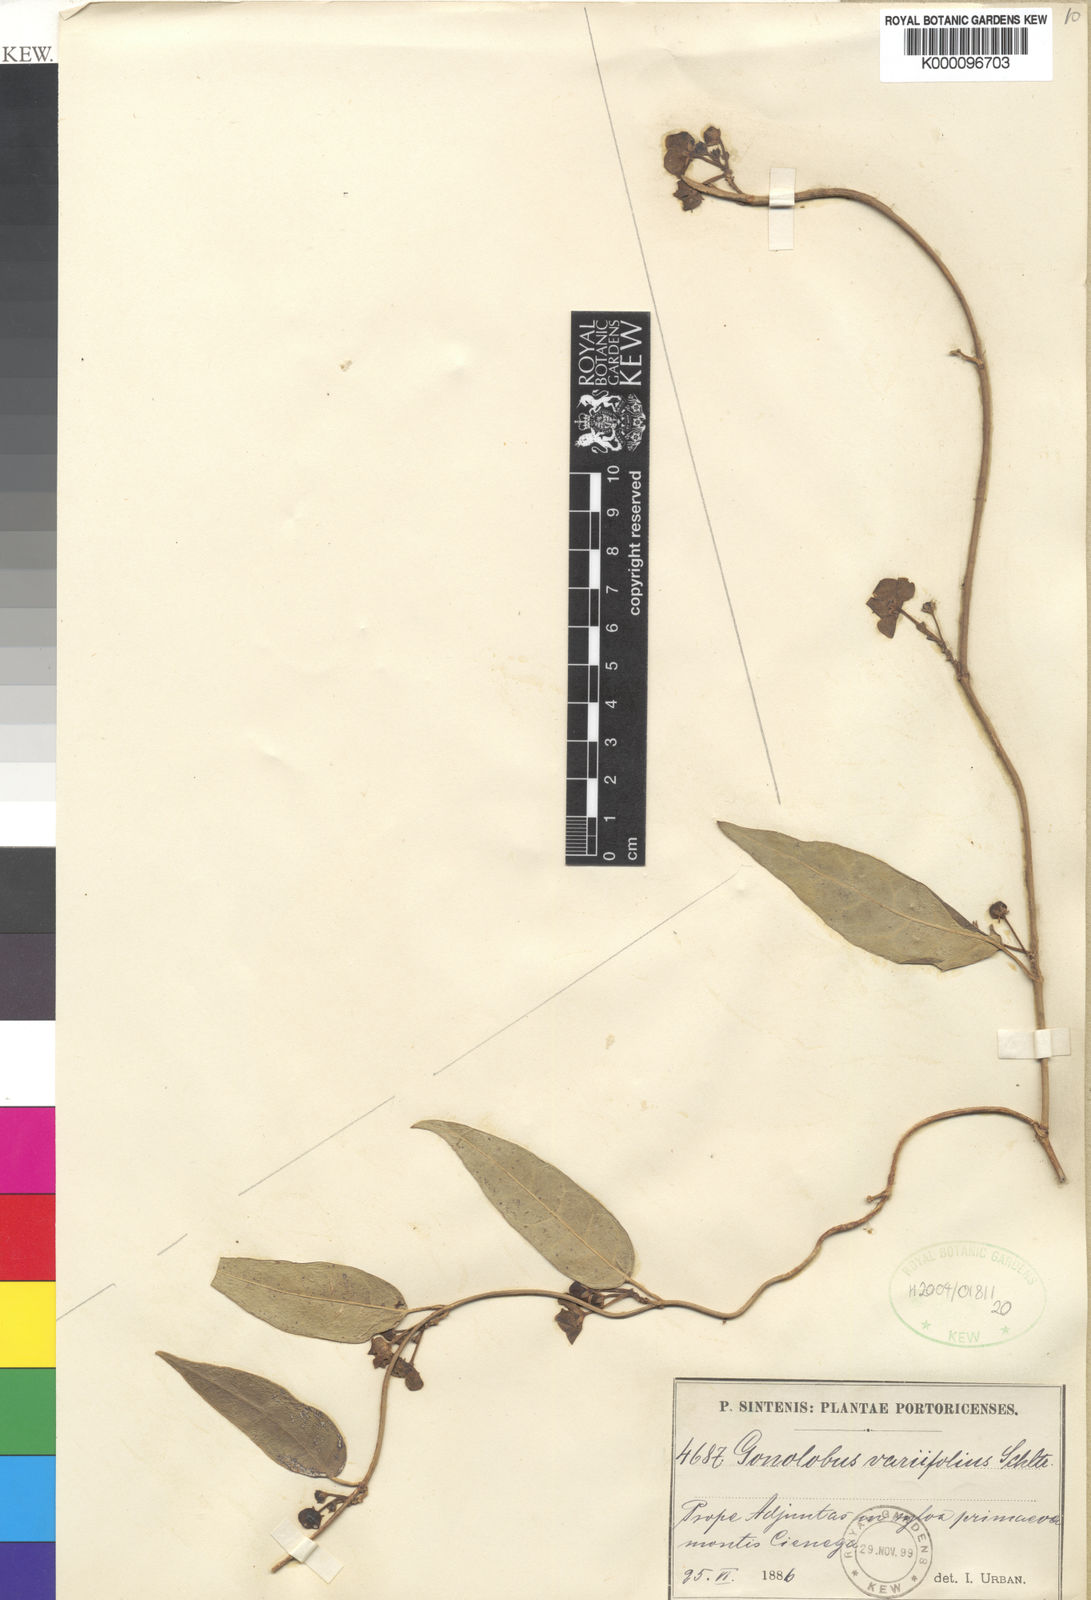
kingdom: Plantae
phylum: Tracheophyta
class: Magnoliopsida
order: Gentianales
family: Apocynaceae
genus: Matelea
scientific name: Matelea variifolia
